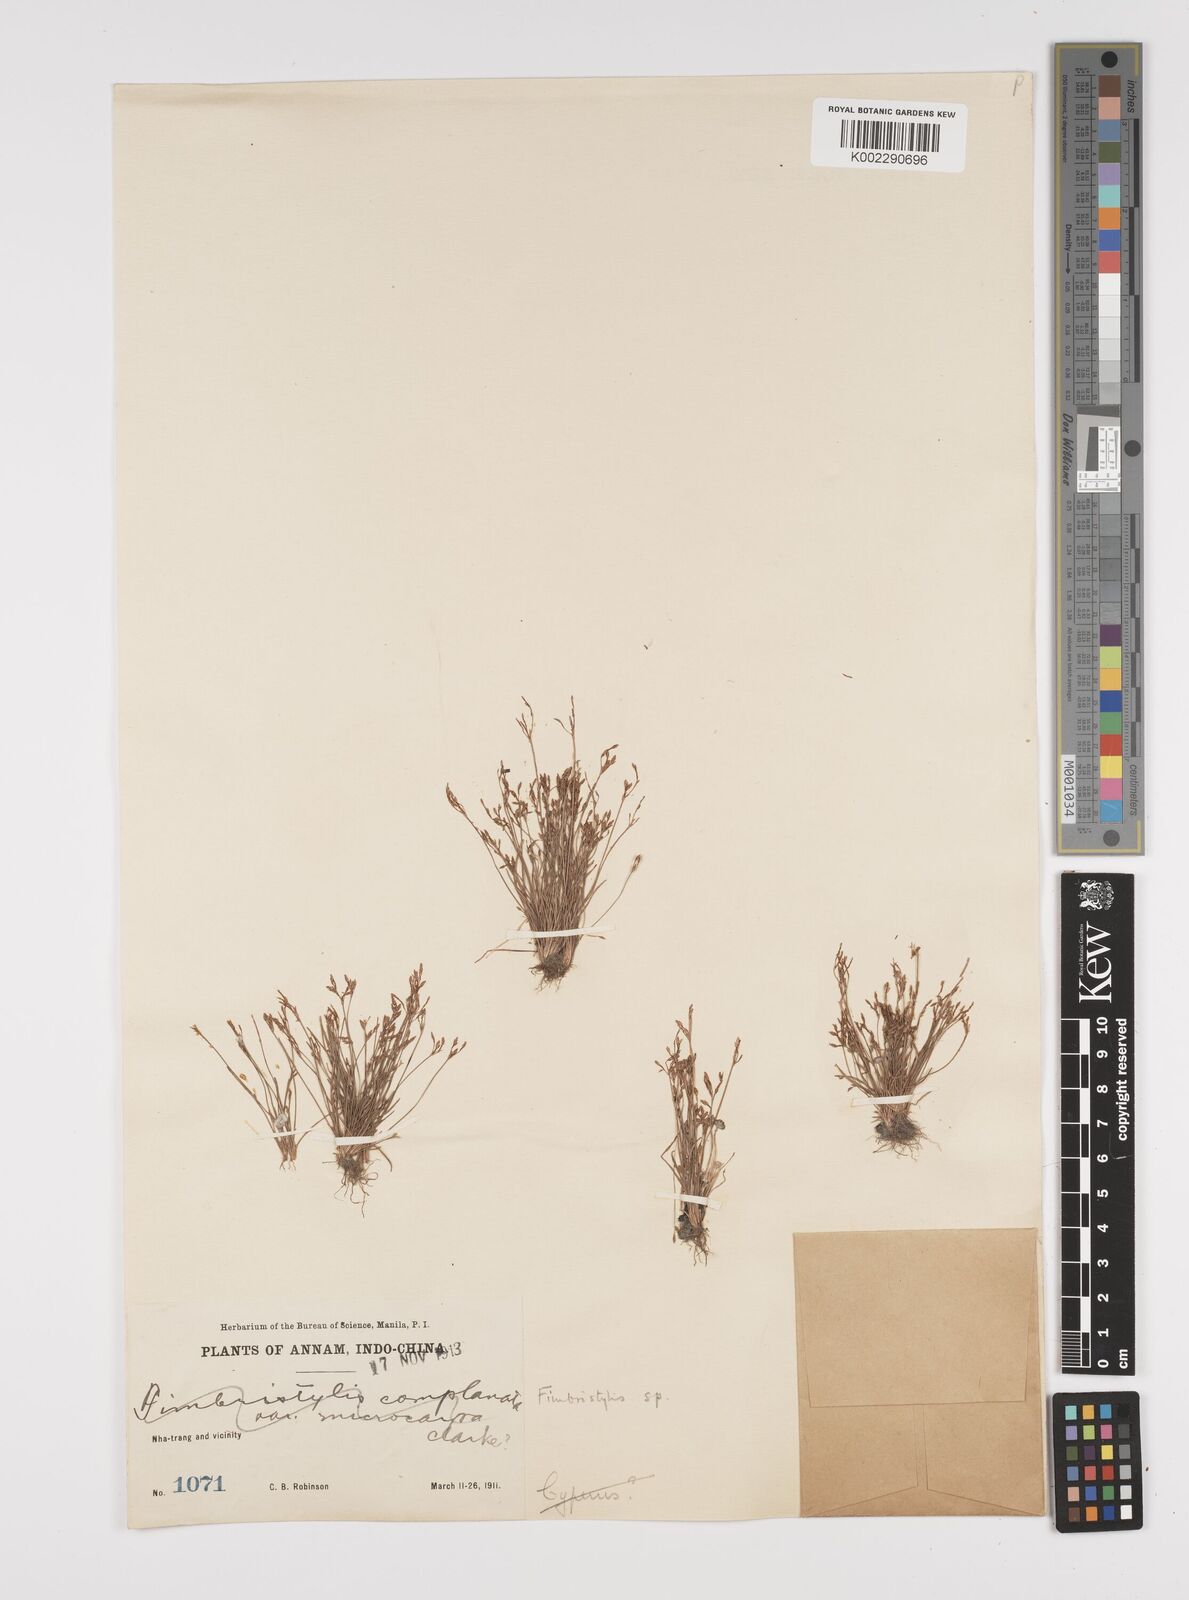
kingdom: Plantae
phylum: Tracheophyta
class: Liliopsida
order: Poales
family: Cyperaceae
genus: Fimbristylis
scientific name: Fimbristylis
